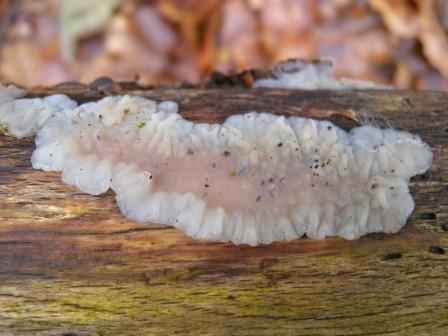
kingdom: Fungi
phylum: Basidiomycota
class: Agaricomycetes
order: Auriculariales
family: Auriculariaceae
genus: Exidia
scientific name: Exidia thuretiana
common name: hvidlig bævretop
